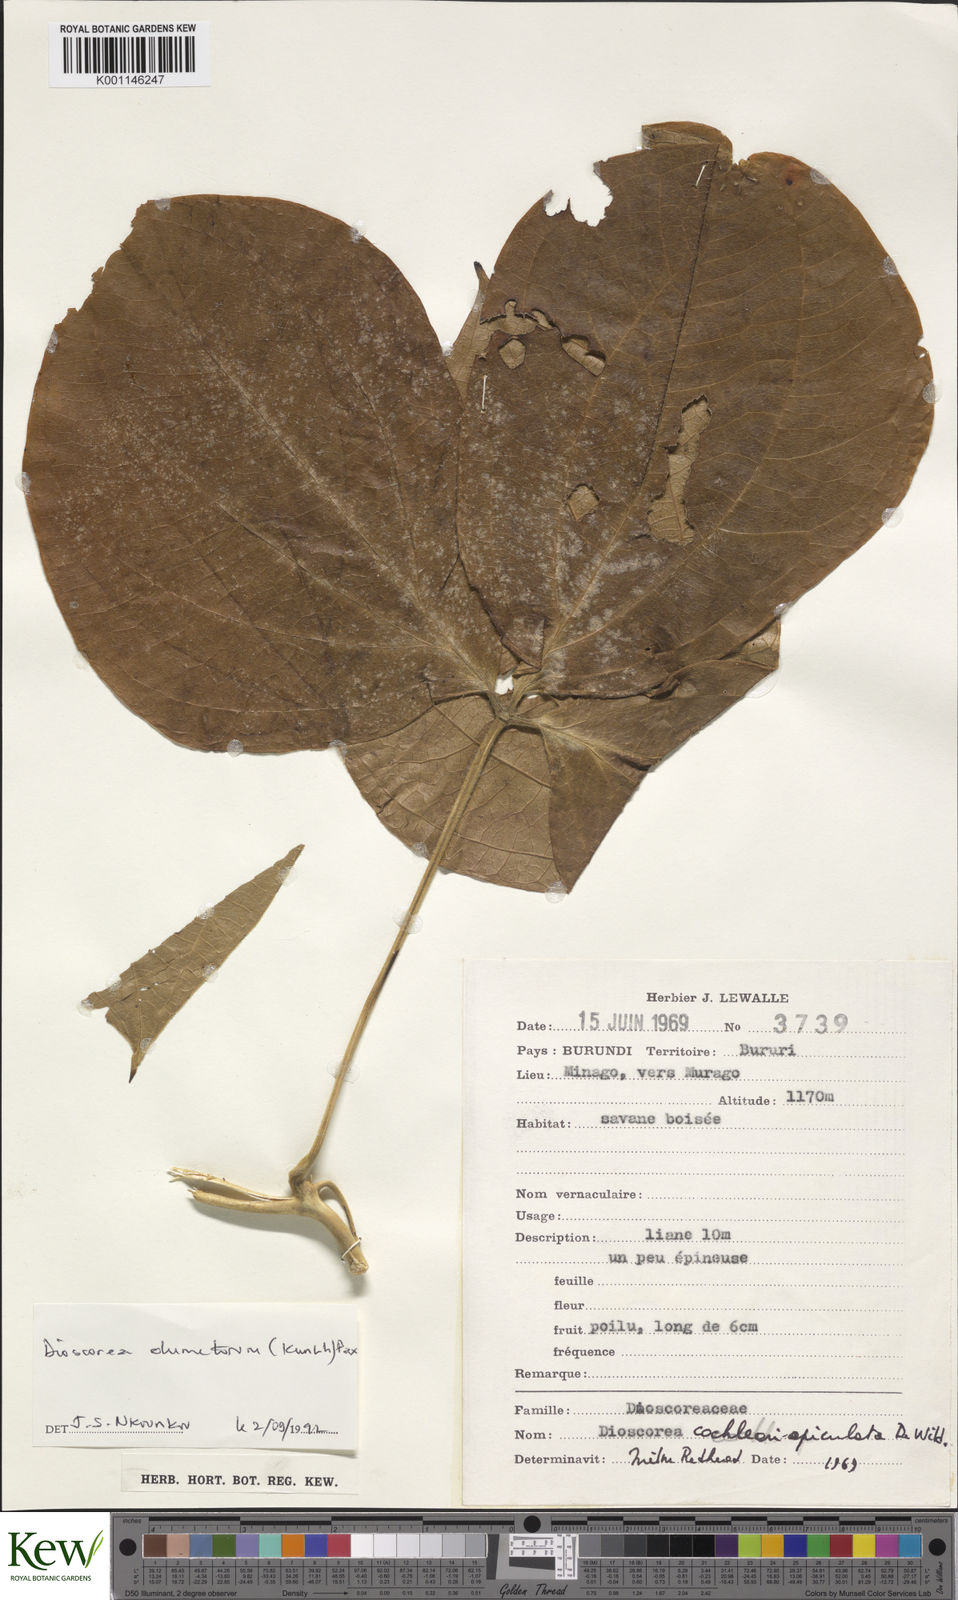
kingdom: Plantae
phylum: Tracheophyta
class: Liliopsida
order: Dioscoreales
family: Dioscoreaceae
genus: Dioscorea
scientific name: Dioscorea dumetorum
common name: African bitter yam
